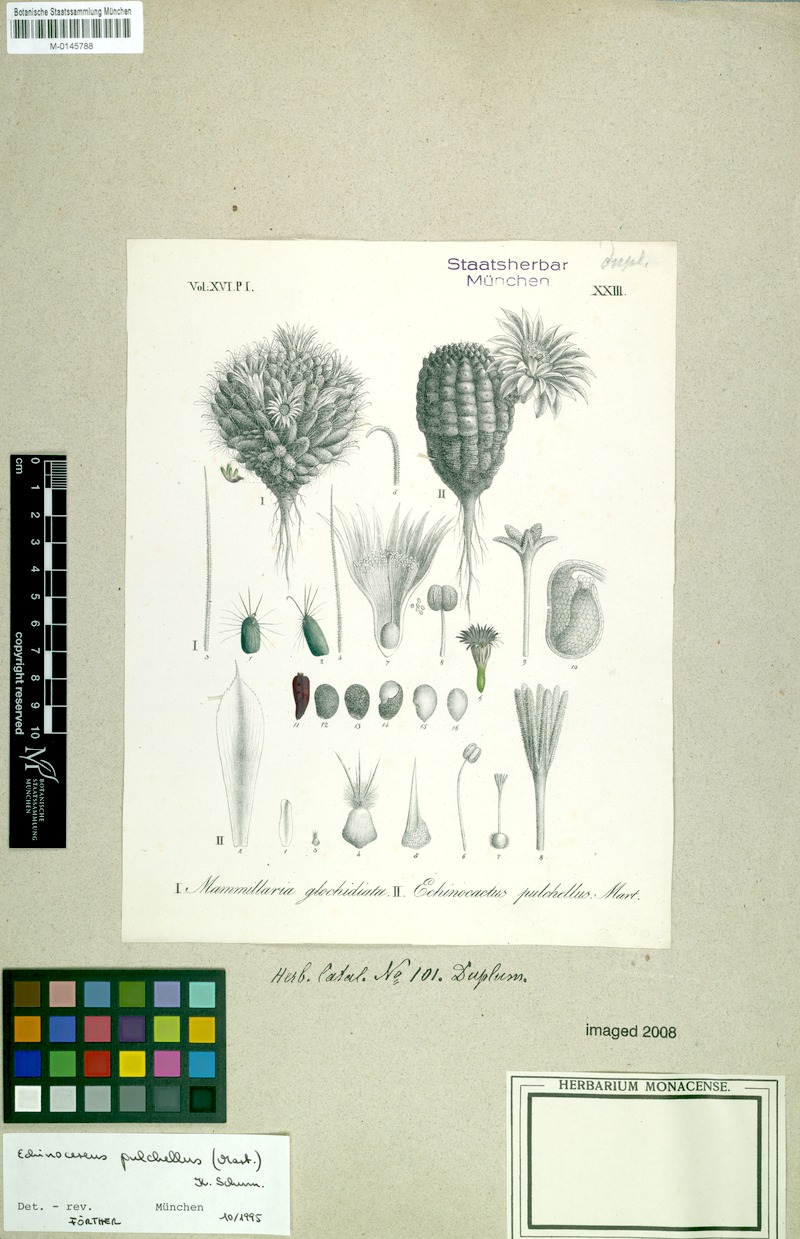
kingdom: Plantae
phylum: Tracheophyta
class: Magnoliopsida
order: Caryophyllales
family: Cactaceae
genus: Echinocereus
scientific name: Echinocereus pulchellus
